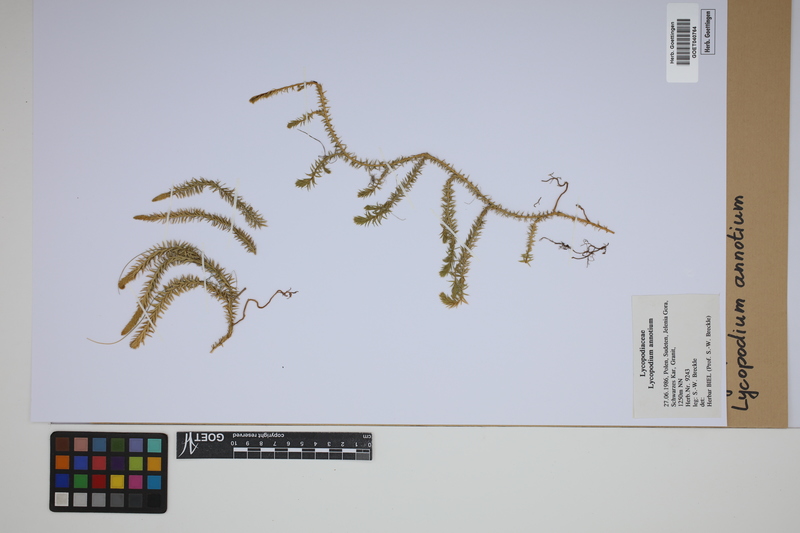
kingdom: Plantae
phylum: Tracheophyta
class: Lycopodiopsida
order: Lycopodiales
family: Lycopodiaceae
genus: Spinulum
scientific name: Spinulum annotinum
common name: Interrupted club-moss
